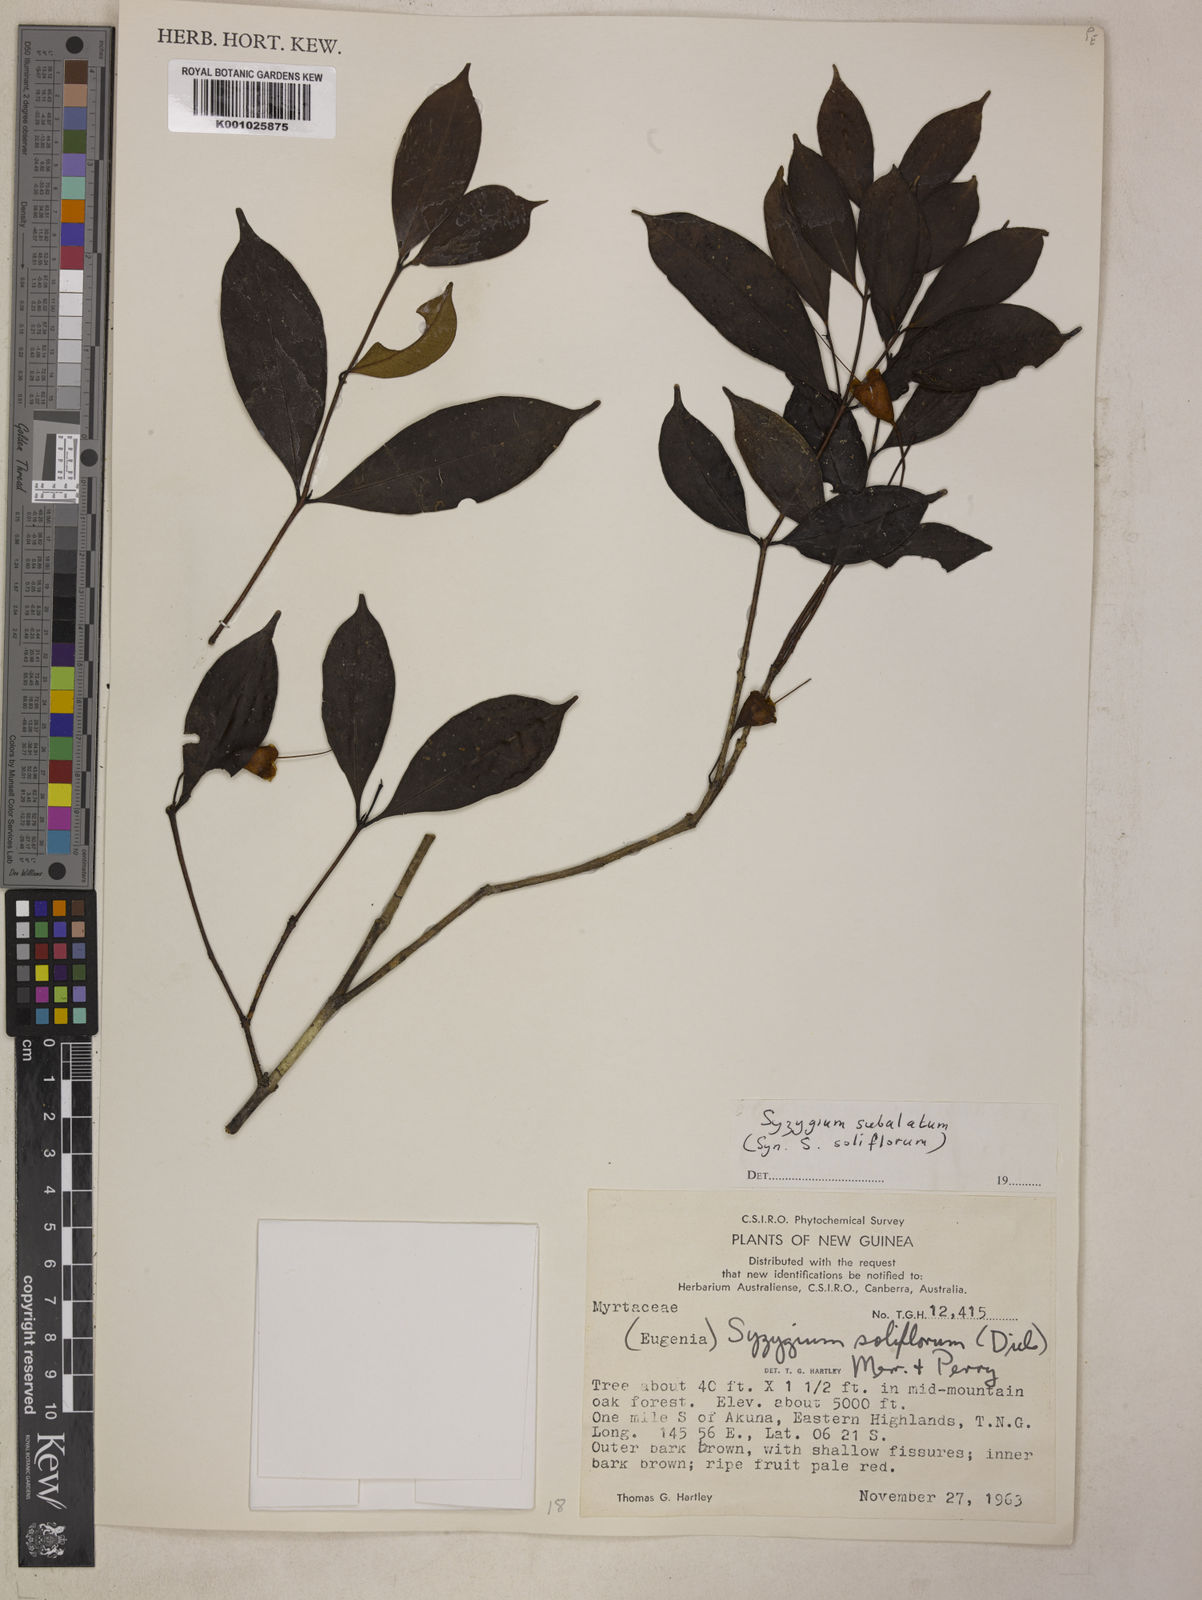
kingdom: Plantae
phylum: Tracheophyta
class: Magnoliopsida
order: Myrtales
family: Myrtaceae
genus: Syzygium
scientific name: Syzygium subalatum
